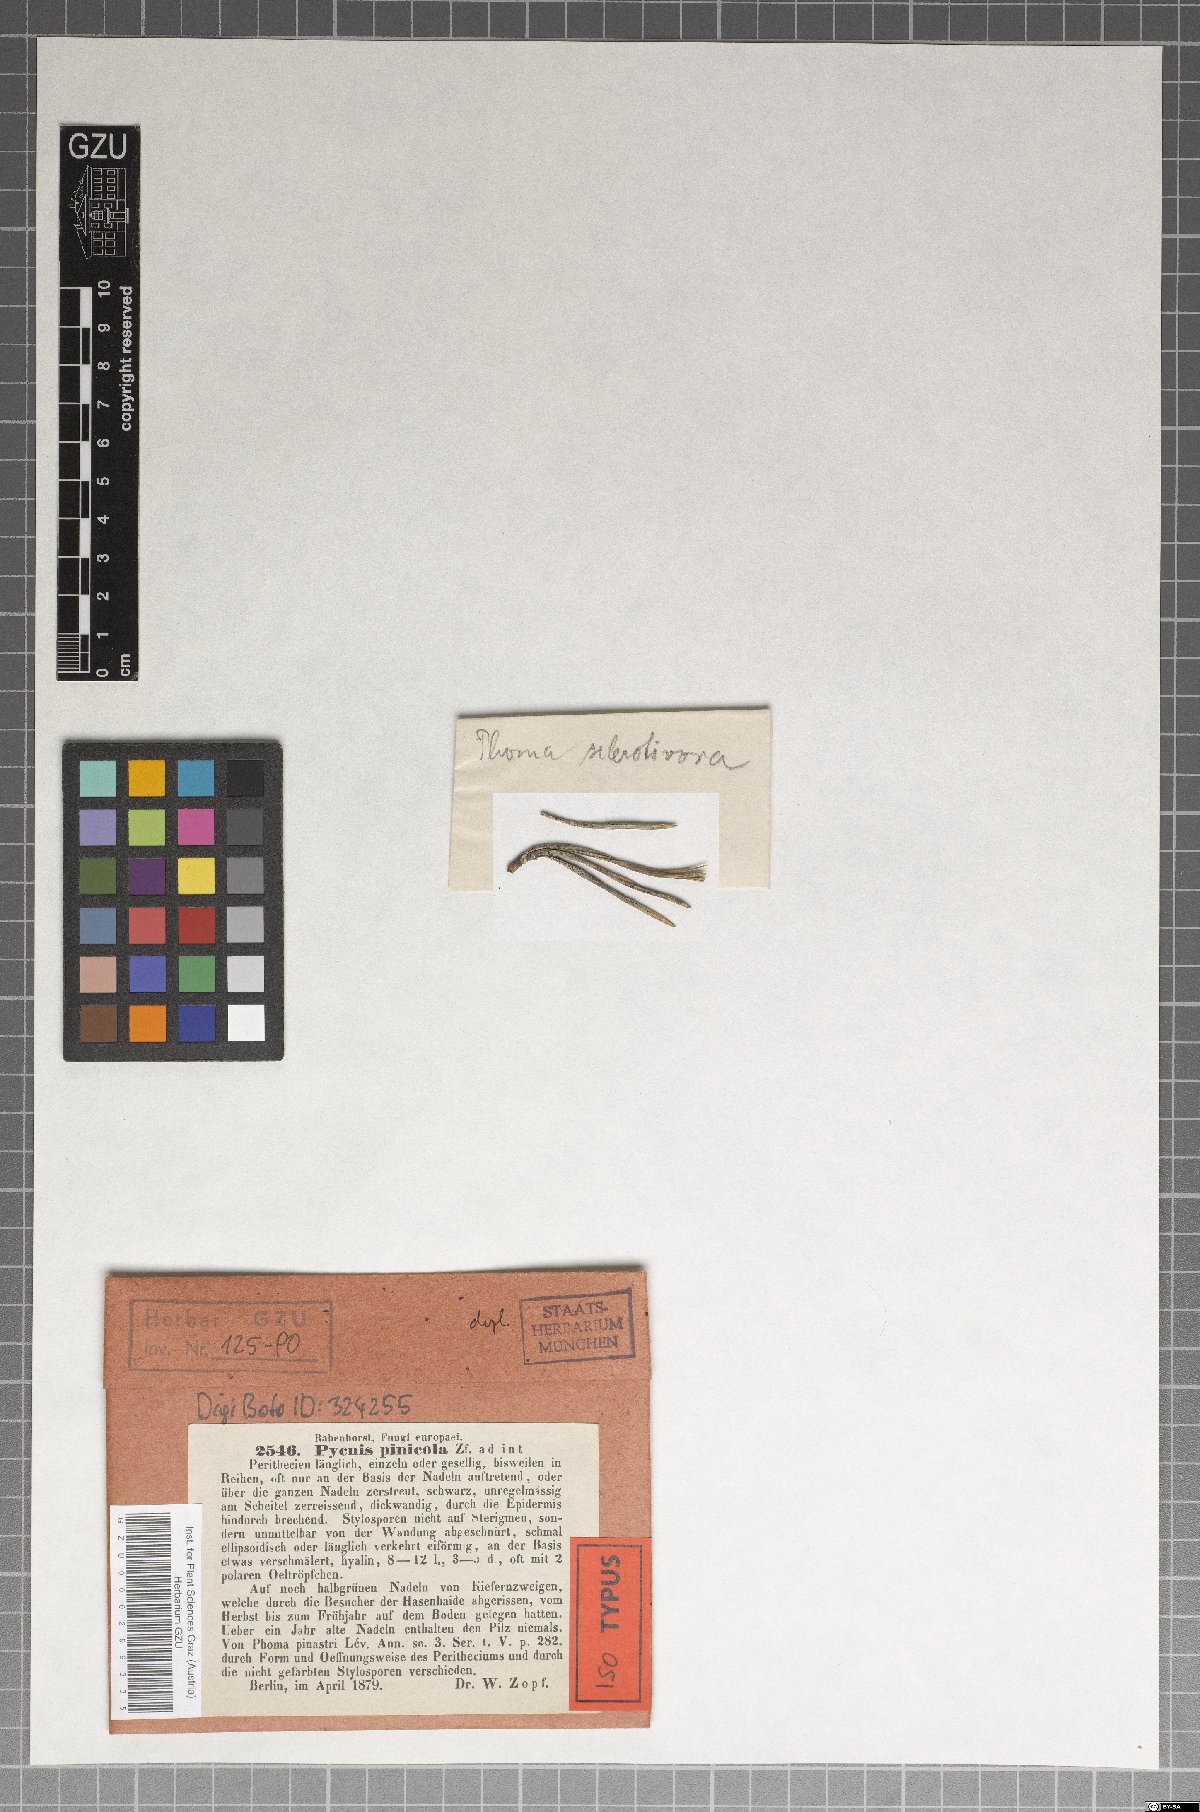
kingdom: Fungi
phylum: Ascomycota
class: Dothideomycetes
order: Dothideales
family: Dothioraceae
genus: Sydowia
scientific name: Sydowia polyspora
